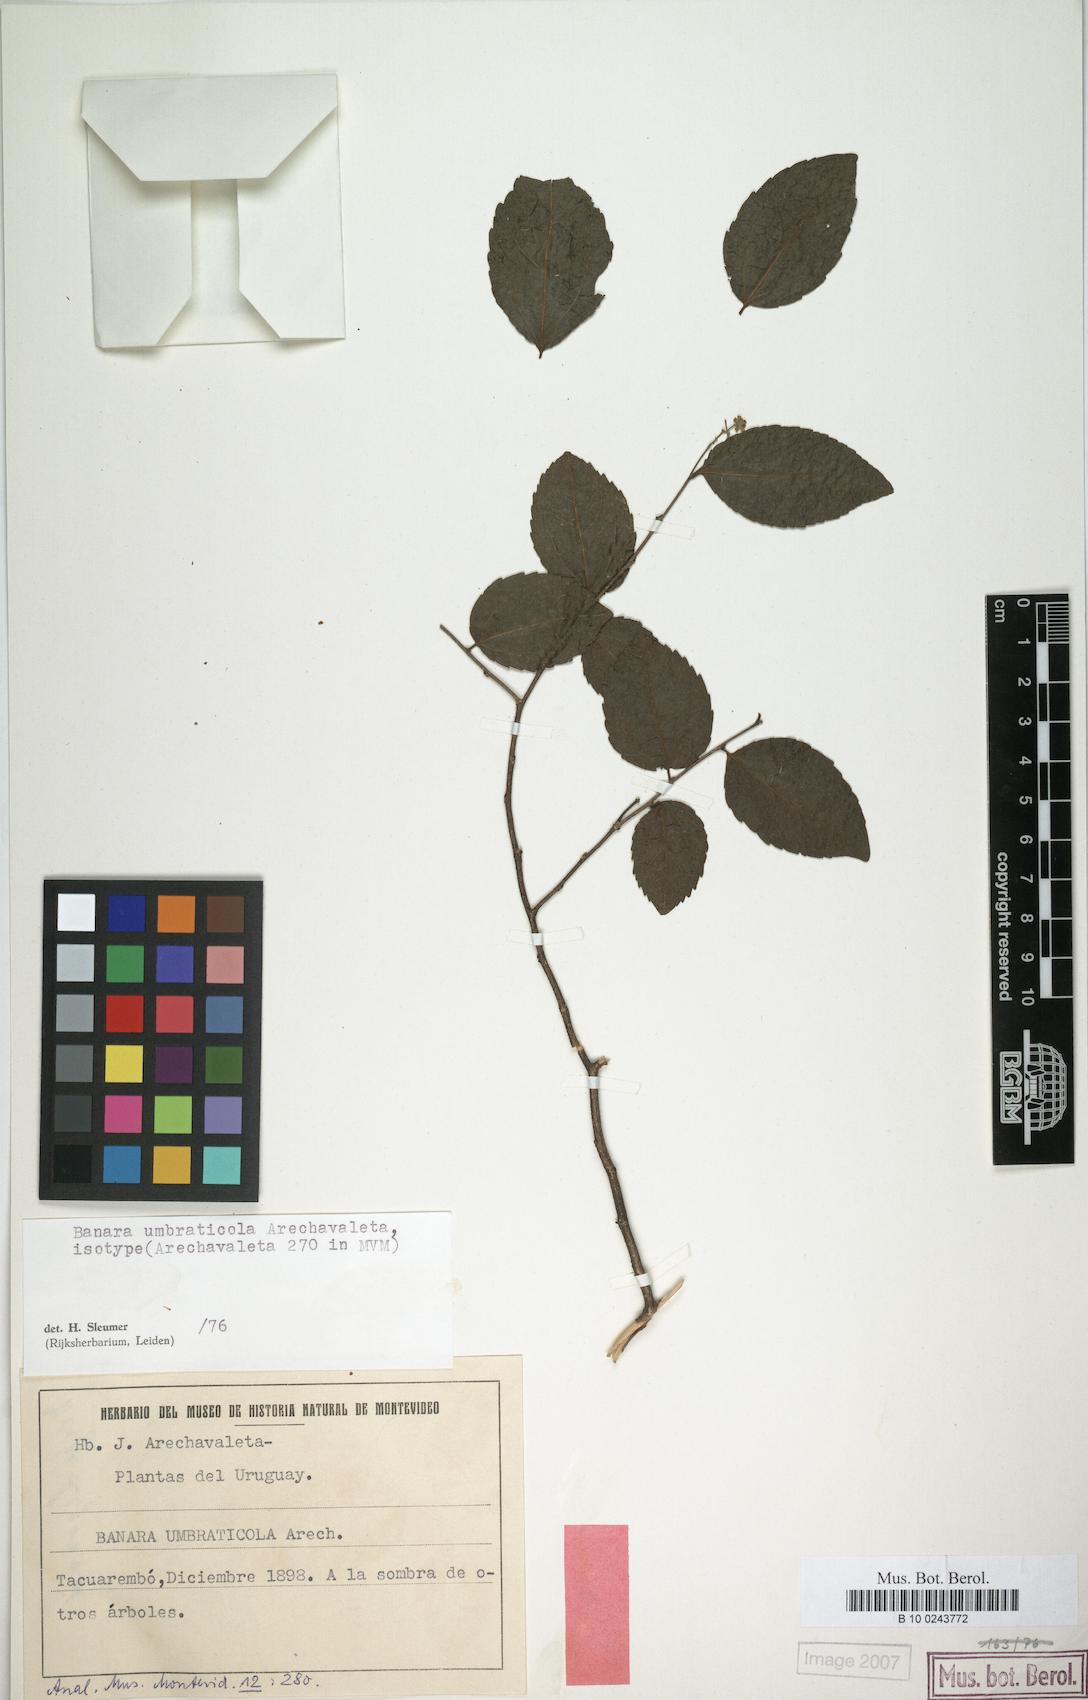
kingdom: Plantae
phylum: Tracheophyta
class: Magnoliopsida
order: Malpighiales
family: Salicaceae
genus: Banara
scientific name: Banara umbraticola
